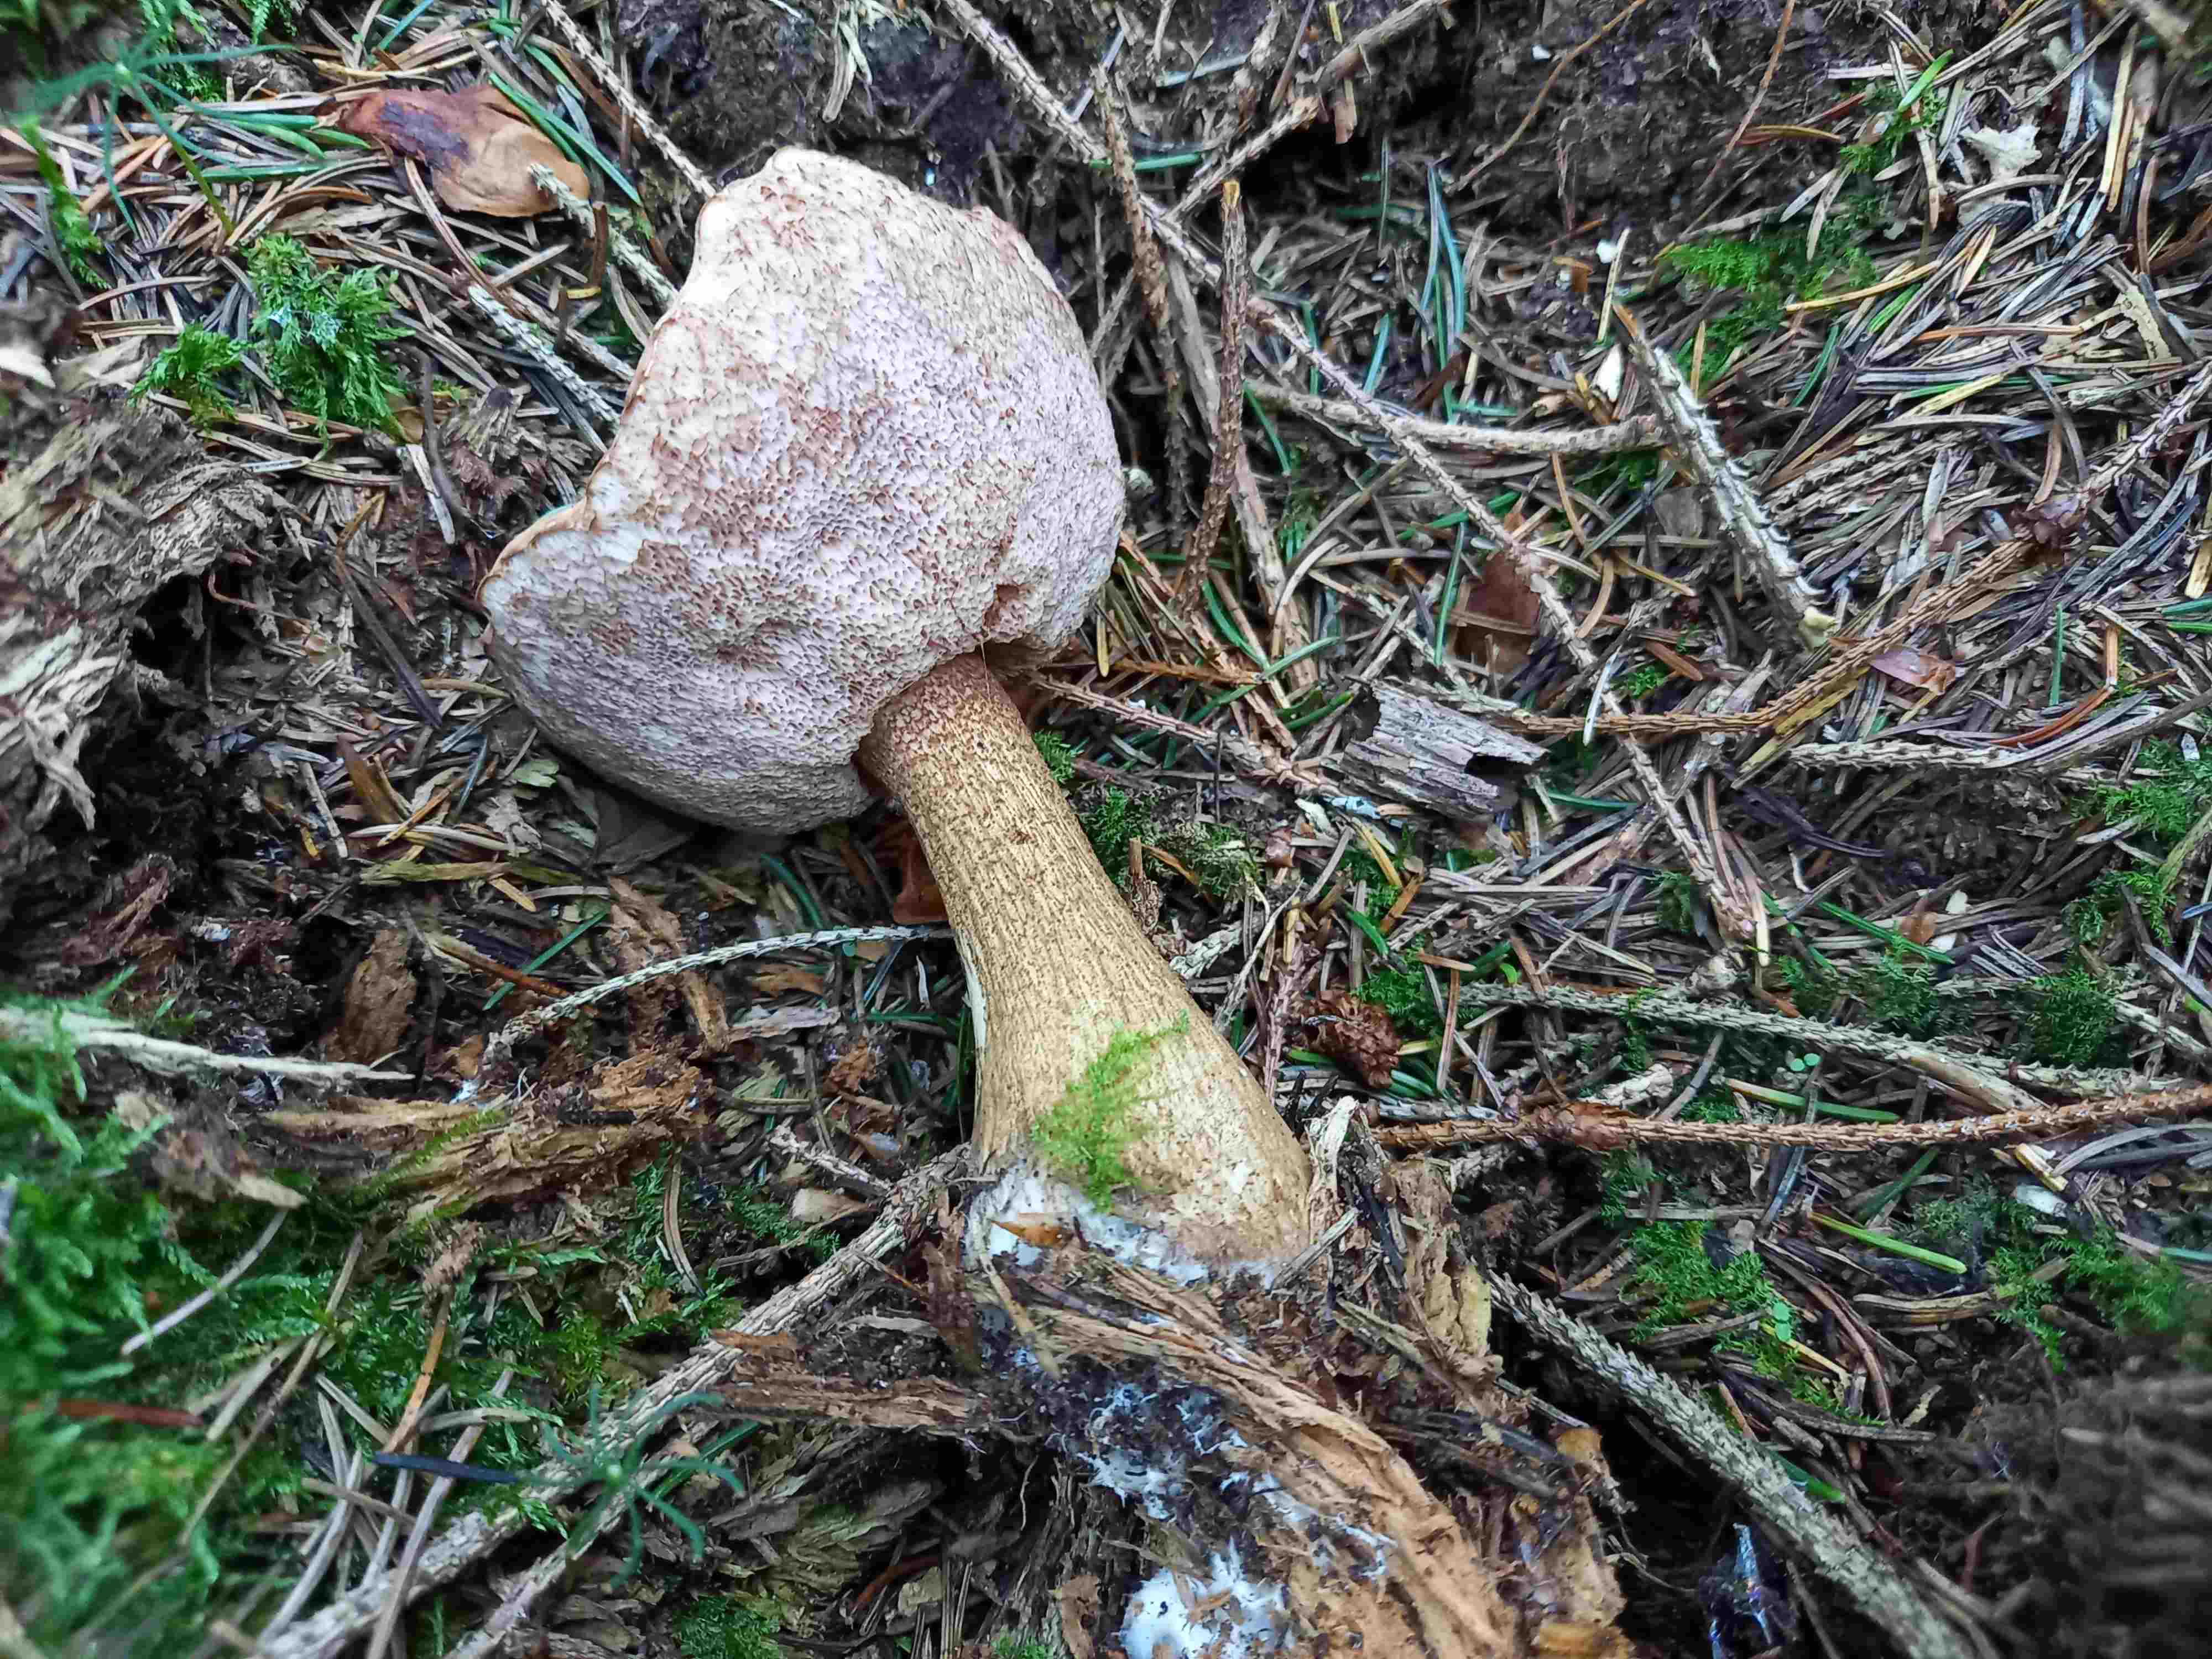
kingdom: Fungi
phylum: Basidiomycota
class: Agaricomycetes
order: Boletales
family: Boletaceae
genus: Tylopilus
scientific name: Tylopilus felleus
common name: galderørhat
